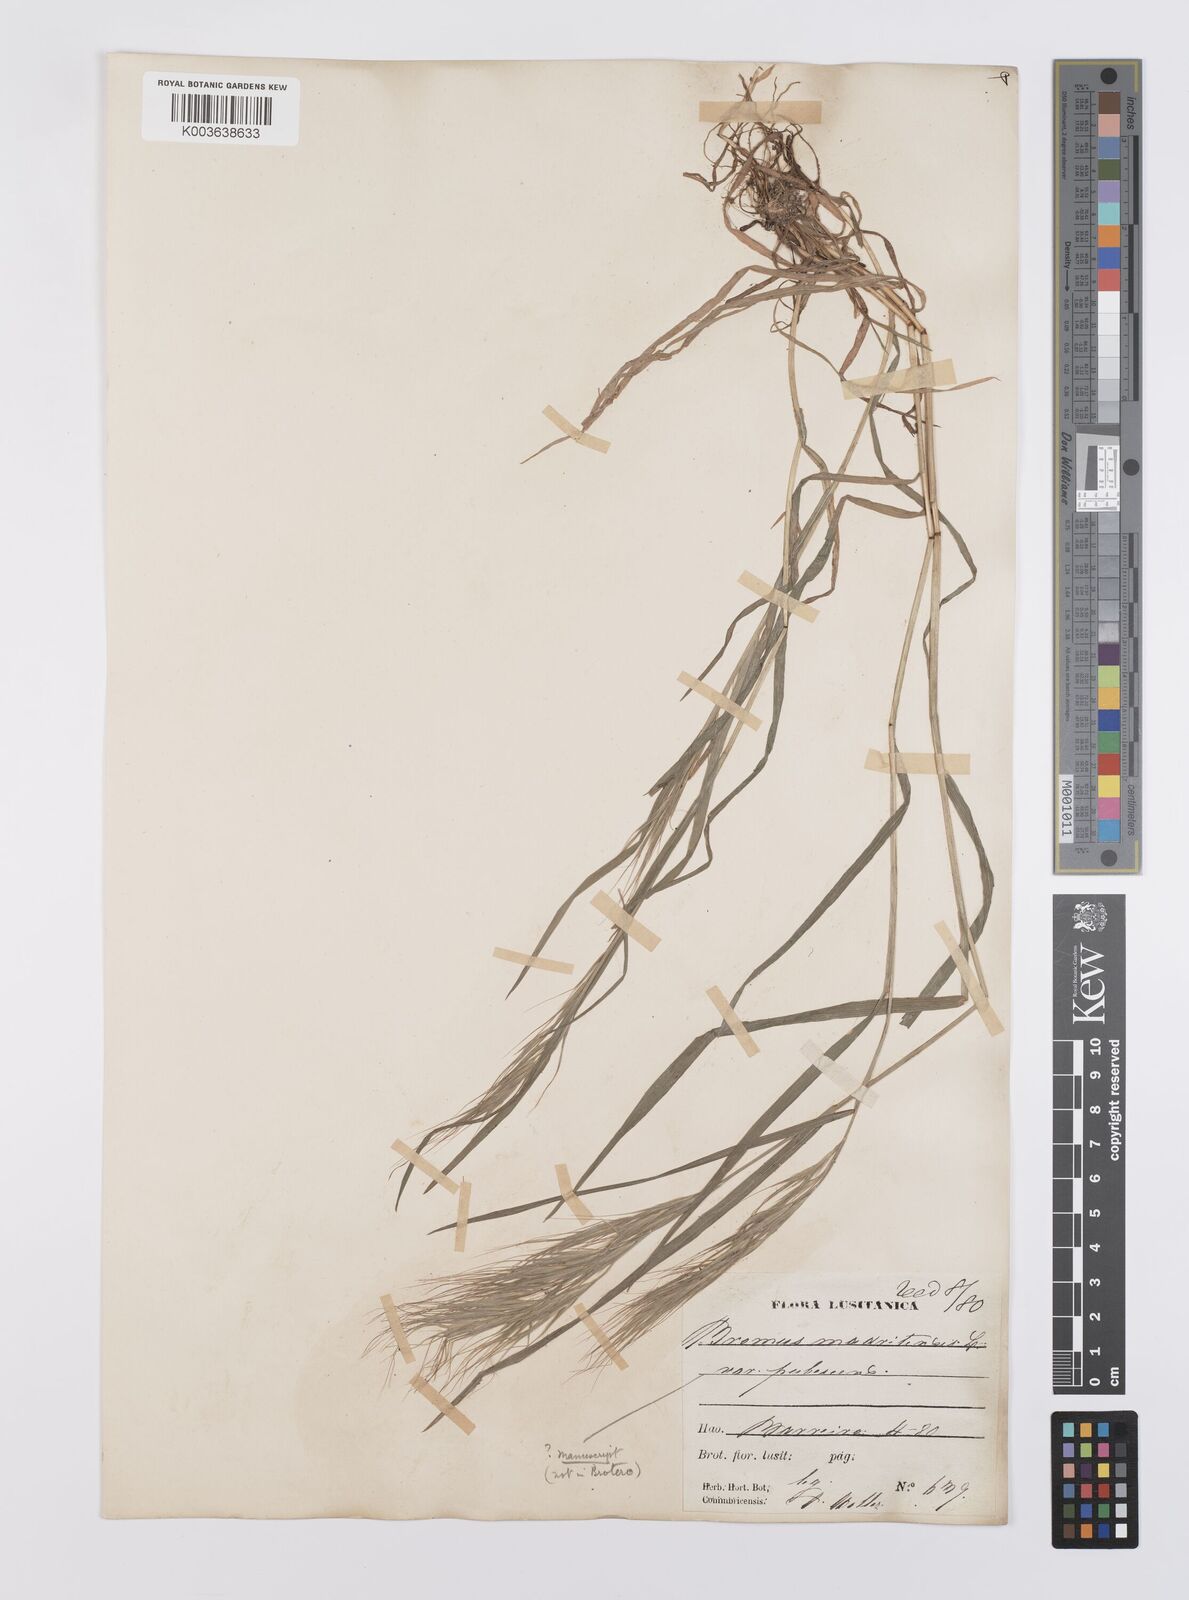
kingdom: Plantae
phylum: Tracheophyta
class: Liliopsida
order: Poales
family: Poaceae
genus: Bromus
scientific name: Bromus madritensis
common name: Compact brome
